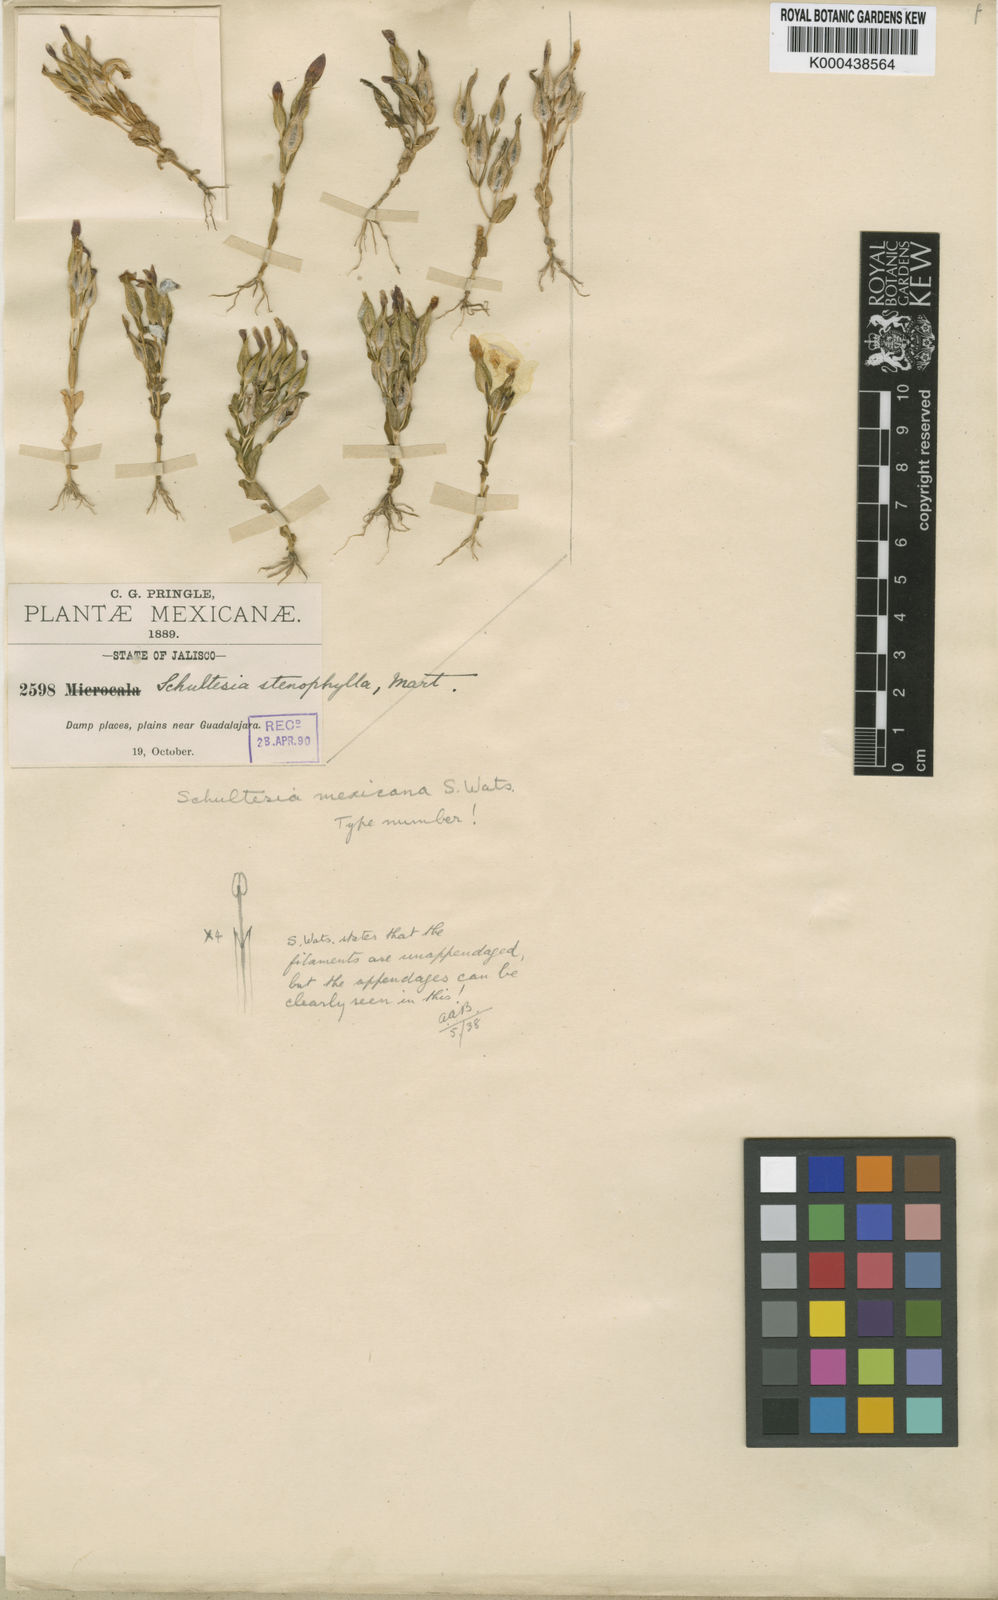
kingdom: Plantae
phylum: Tracheophyta
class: Magnoliopsida
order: Gentianales
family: Gentianaceae
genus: Schultesia
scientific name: Schultesia guianensis
